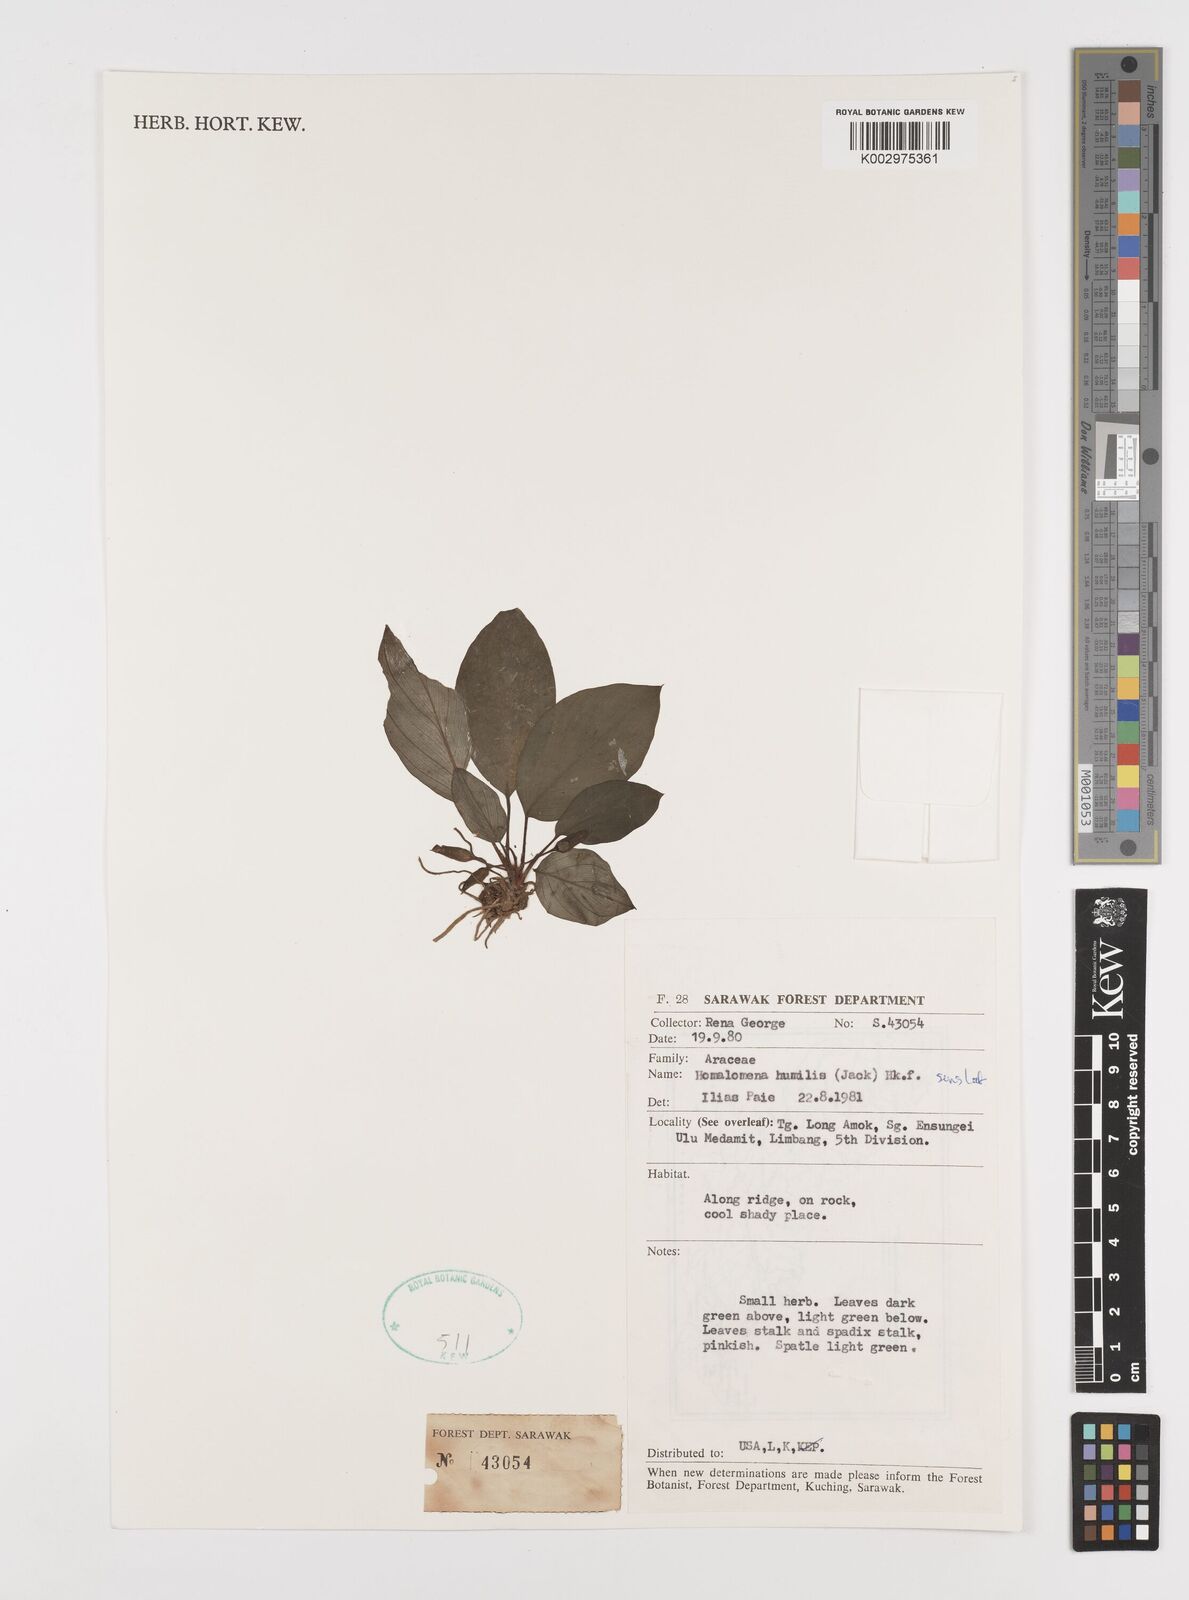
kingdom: Plantae
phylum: Tracheophyta
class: Liliopsida
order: Alismatales
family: Araceae
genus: Homalomena
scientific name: Homalomena humilis
